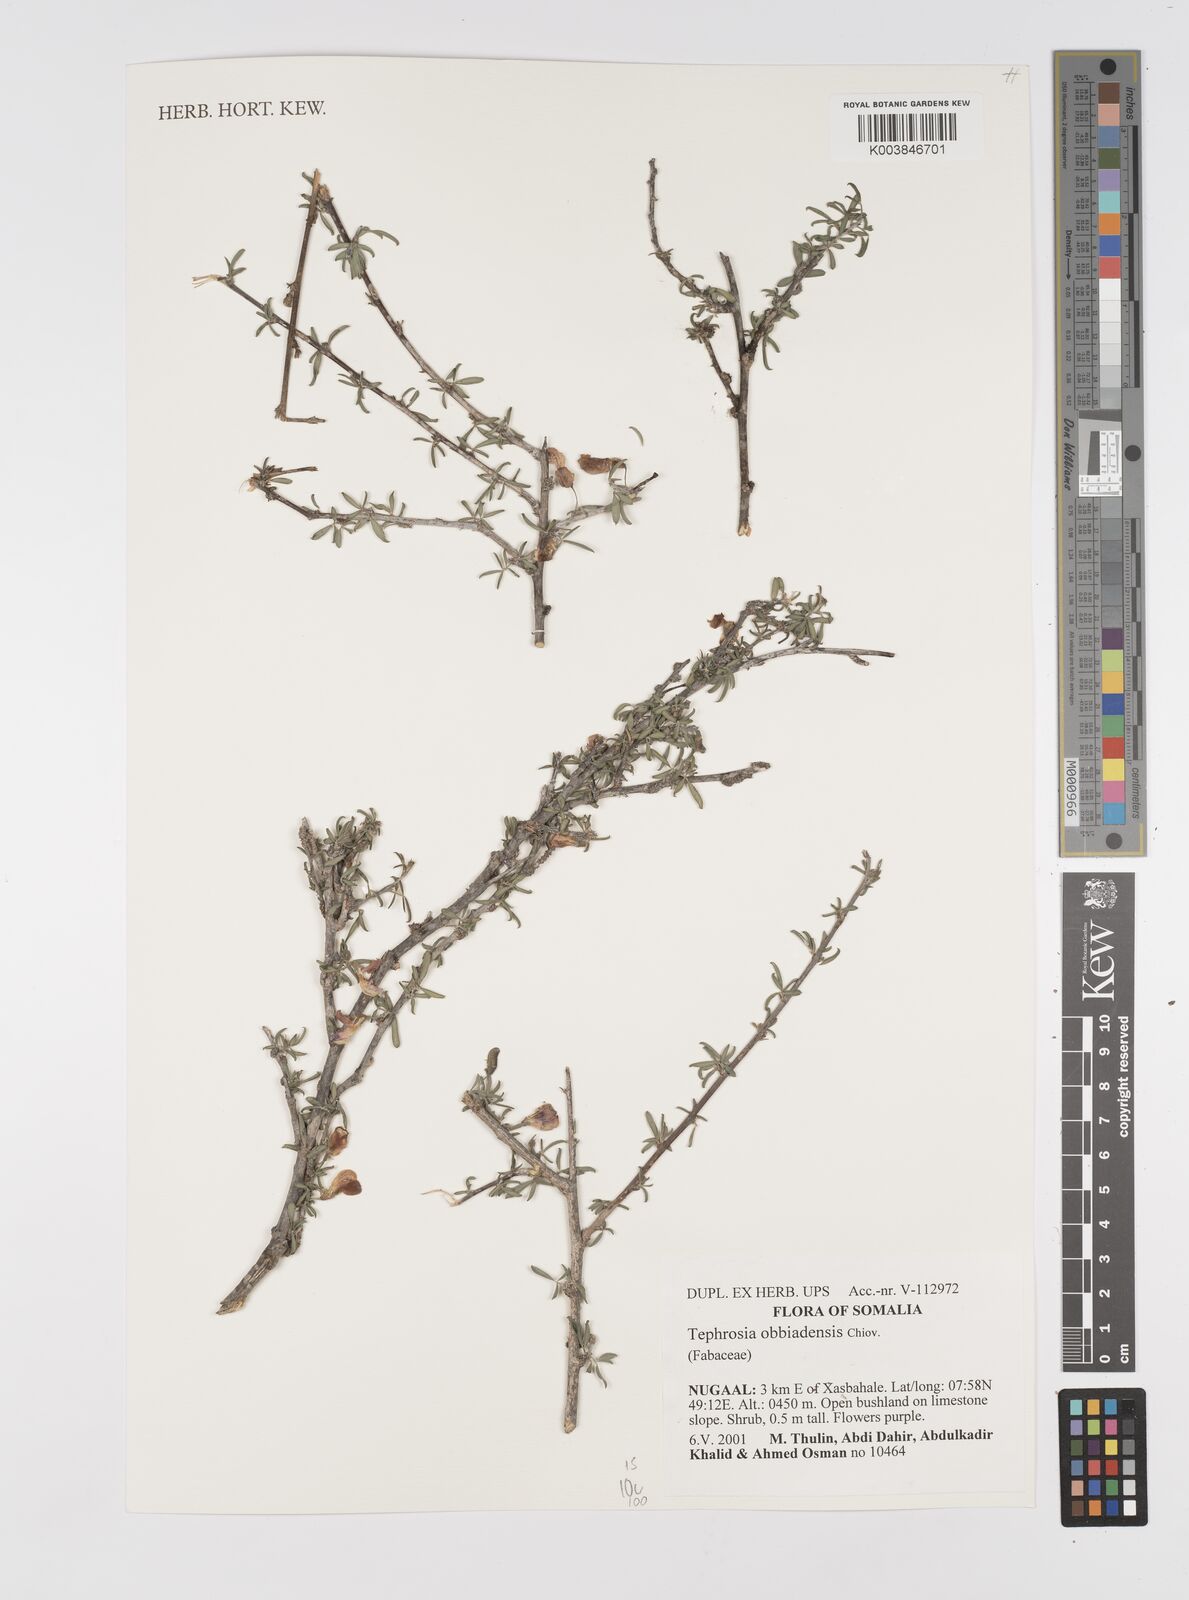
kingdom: Plantae
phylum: Tracheophyta
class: Magnoliopsida
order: Fabales
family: Fabaceae
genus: Tephrosia
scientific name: Tephrosia obbiadensis
